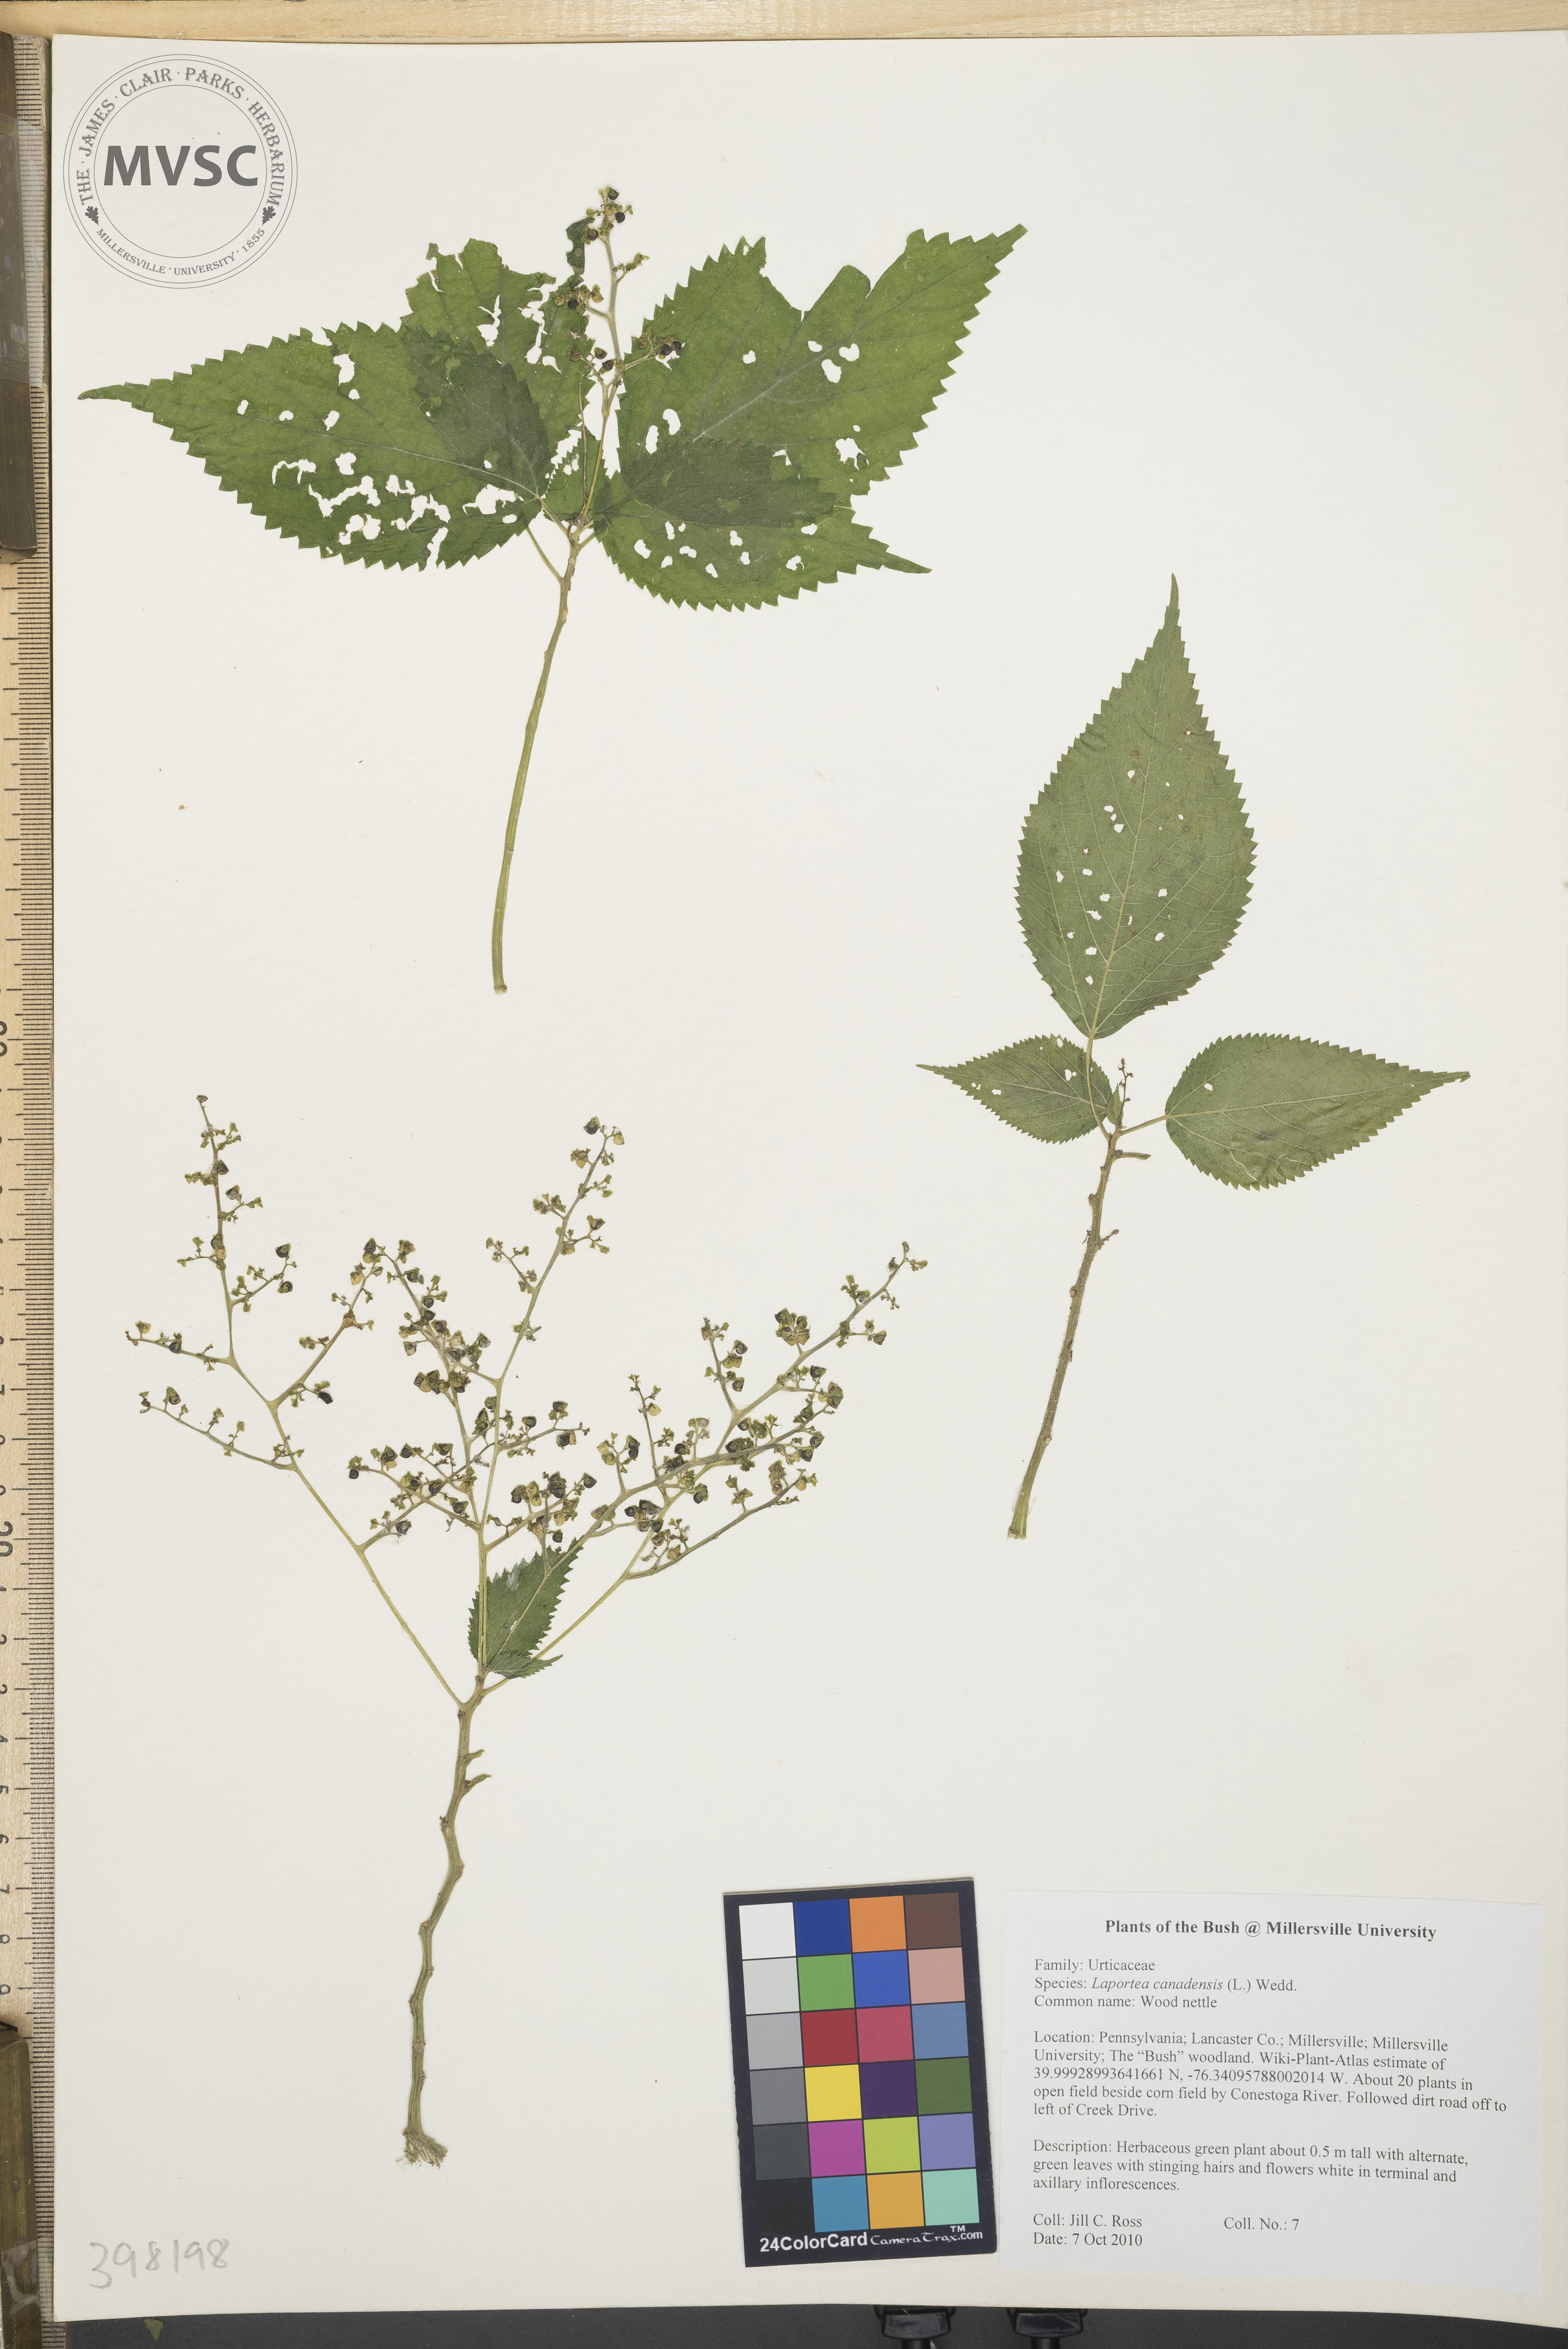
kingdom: Plantae
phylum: Tracheophyta
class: Magnoliopsida
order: Rosales
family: Urticaceae
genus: Laportea
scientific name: Laportea canadensis
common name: Wood-nettle
